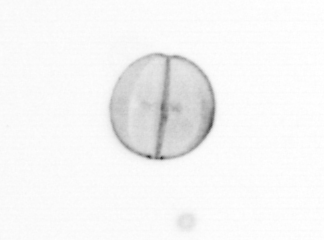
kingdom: Chromista
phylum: Ochrophyta
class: Bacillariophyceae
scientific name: Bacillariophyceae
